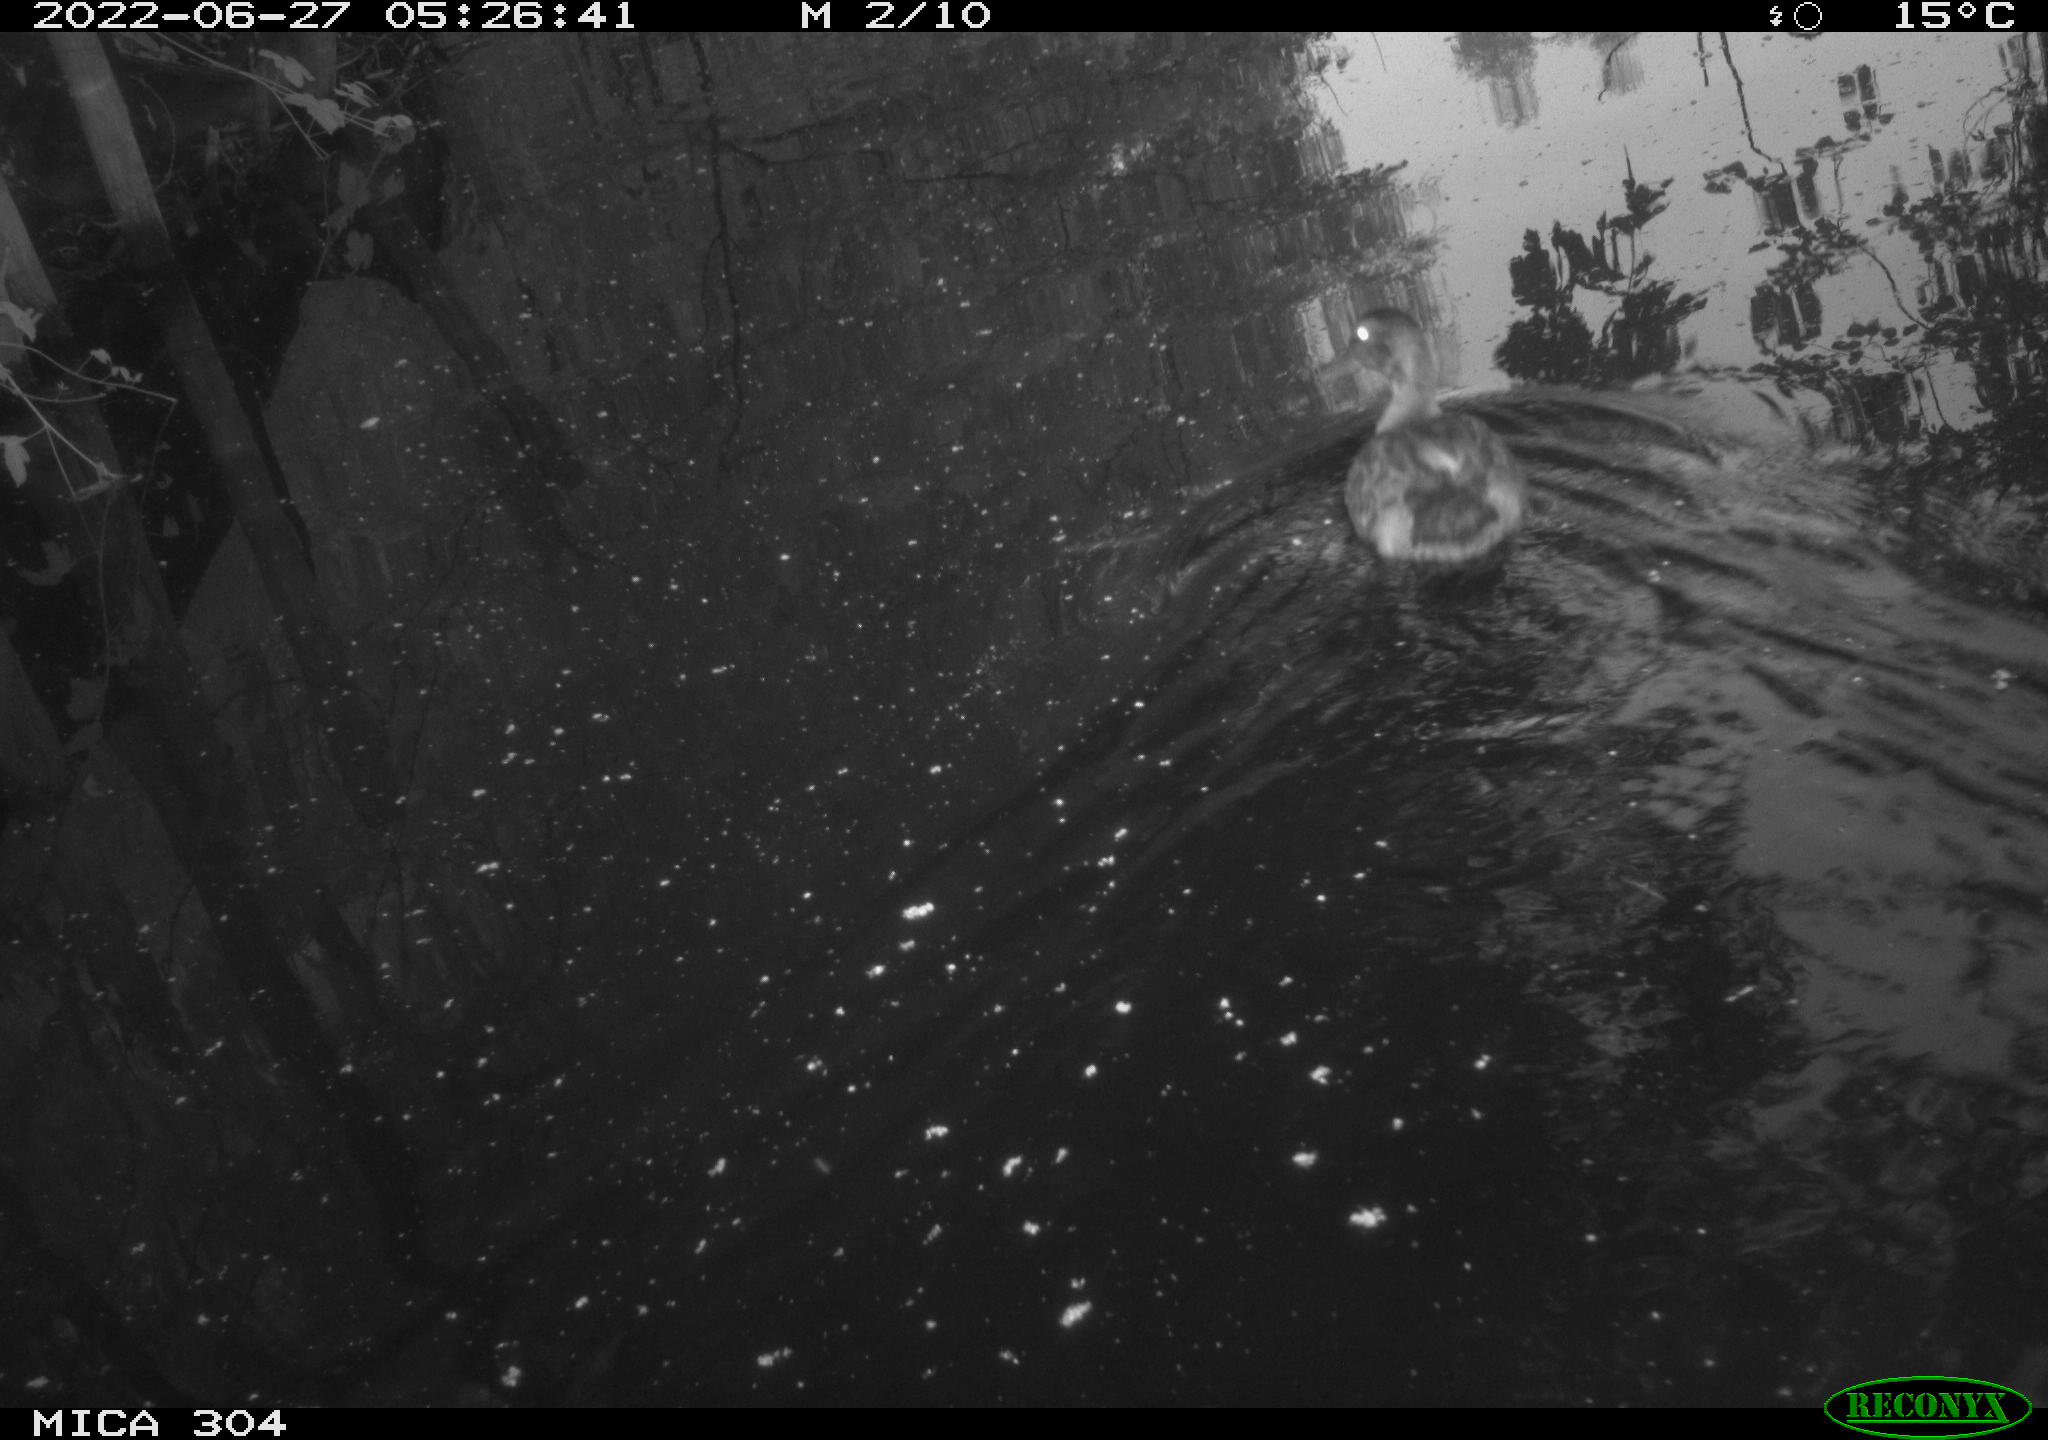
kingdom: Animalia
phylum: Chordata
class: Aves
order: Gruiformes
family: Rallidae
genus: Fulica
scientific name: Fulica atra
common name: Eurasian coot
